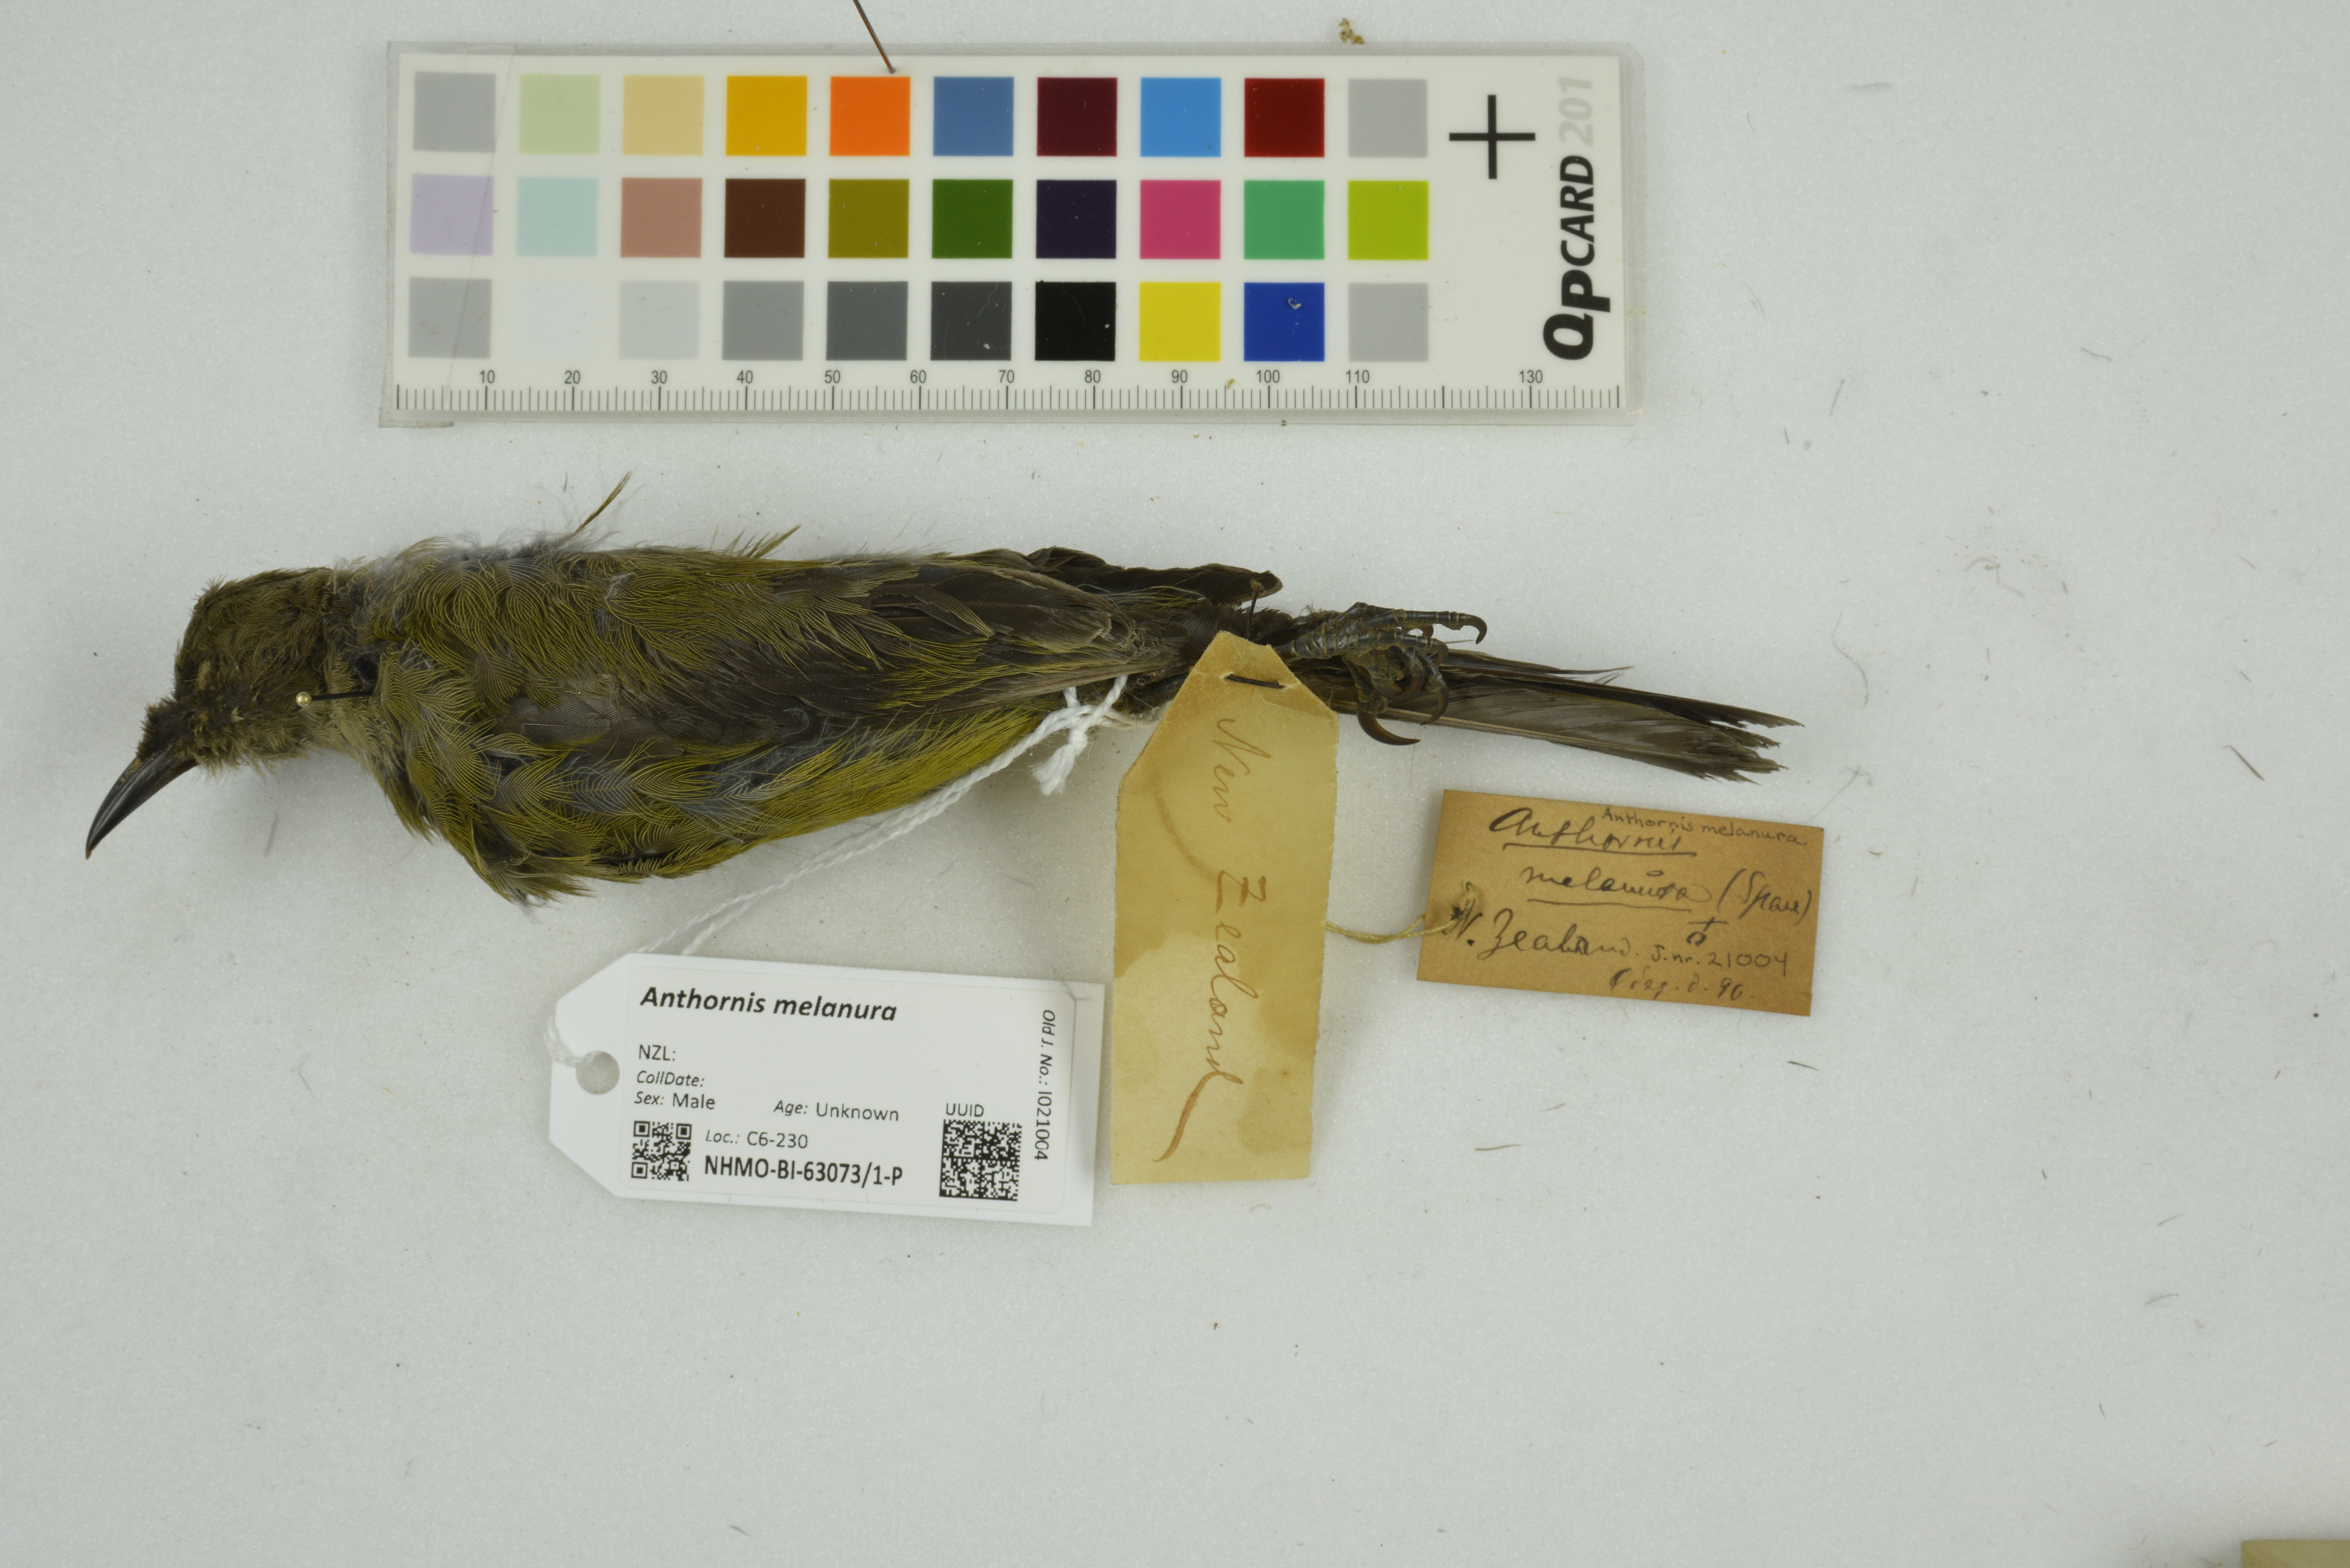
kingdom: Animalia
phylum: Chordata
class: Aves
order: Passeriformes
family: Meliphagidae
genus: Anthornis
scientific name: Anthornis melanura
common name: New zealand bellbird
